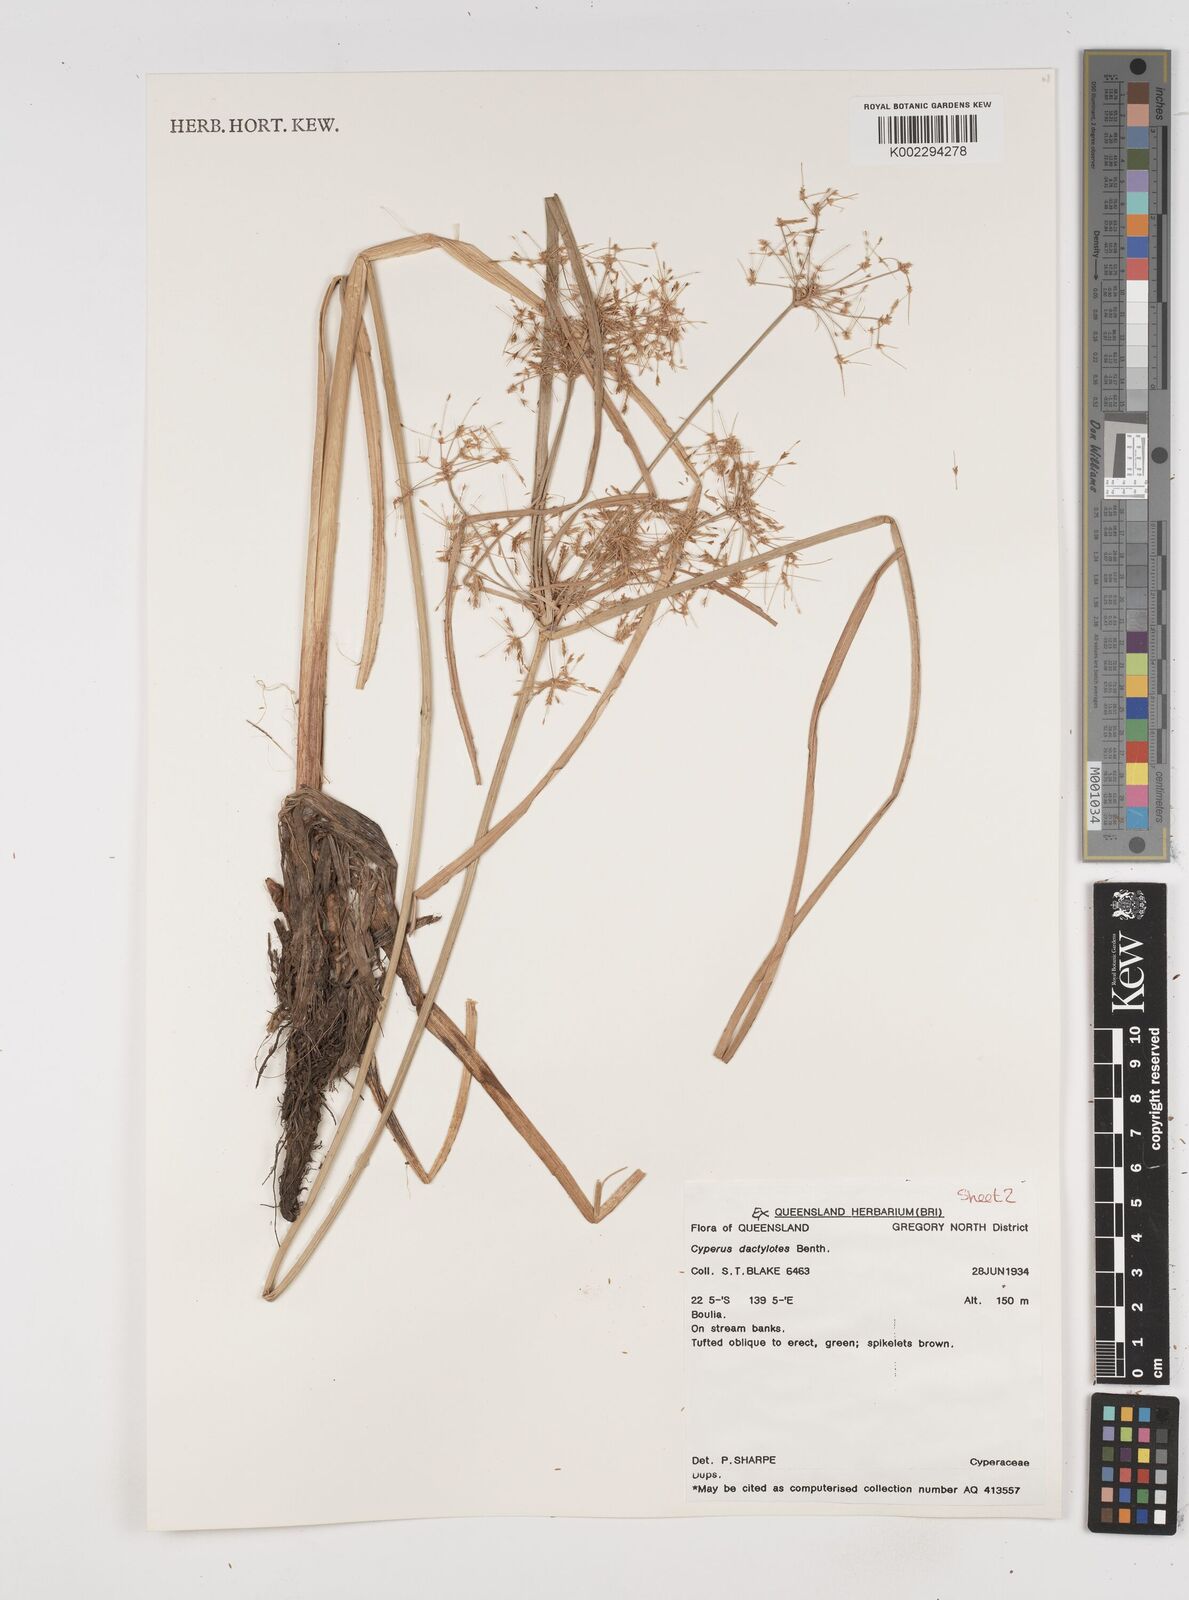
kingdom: Plantae
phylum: Tracheophyta
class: Liliopsida
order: Poales
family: Cyperaceae
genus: Cyperus
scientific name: Cyperus dactylotes
